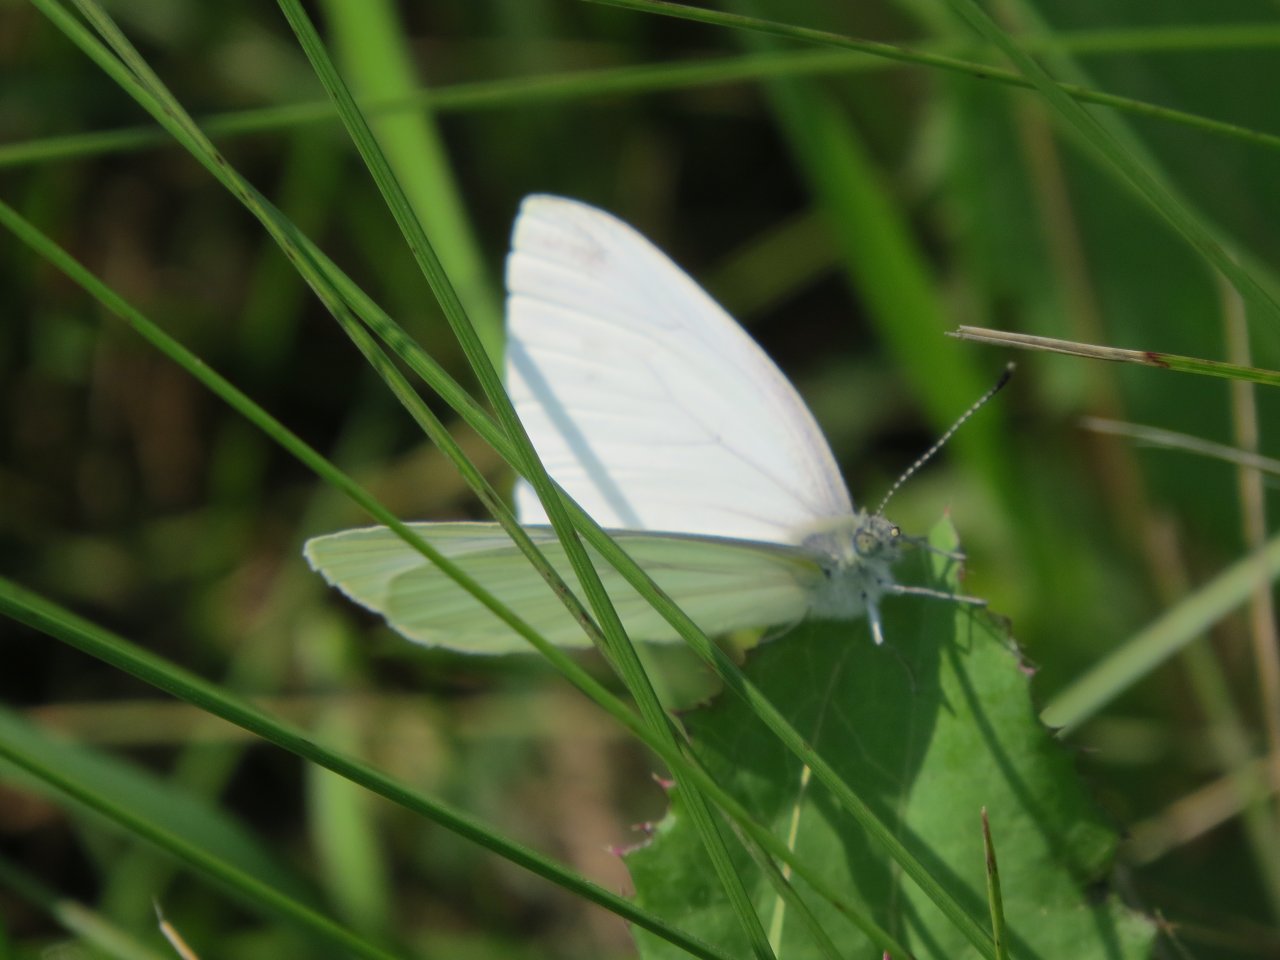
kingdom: Animalia
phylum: Arthropoda
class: Insecta
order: Lepidoptera
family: Pieridae
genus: Pieris
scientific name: Pieris oleracea
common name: Mustard White
